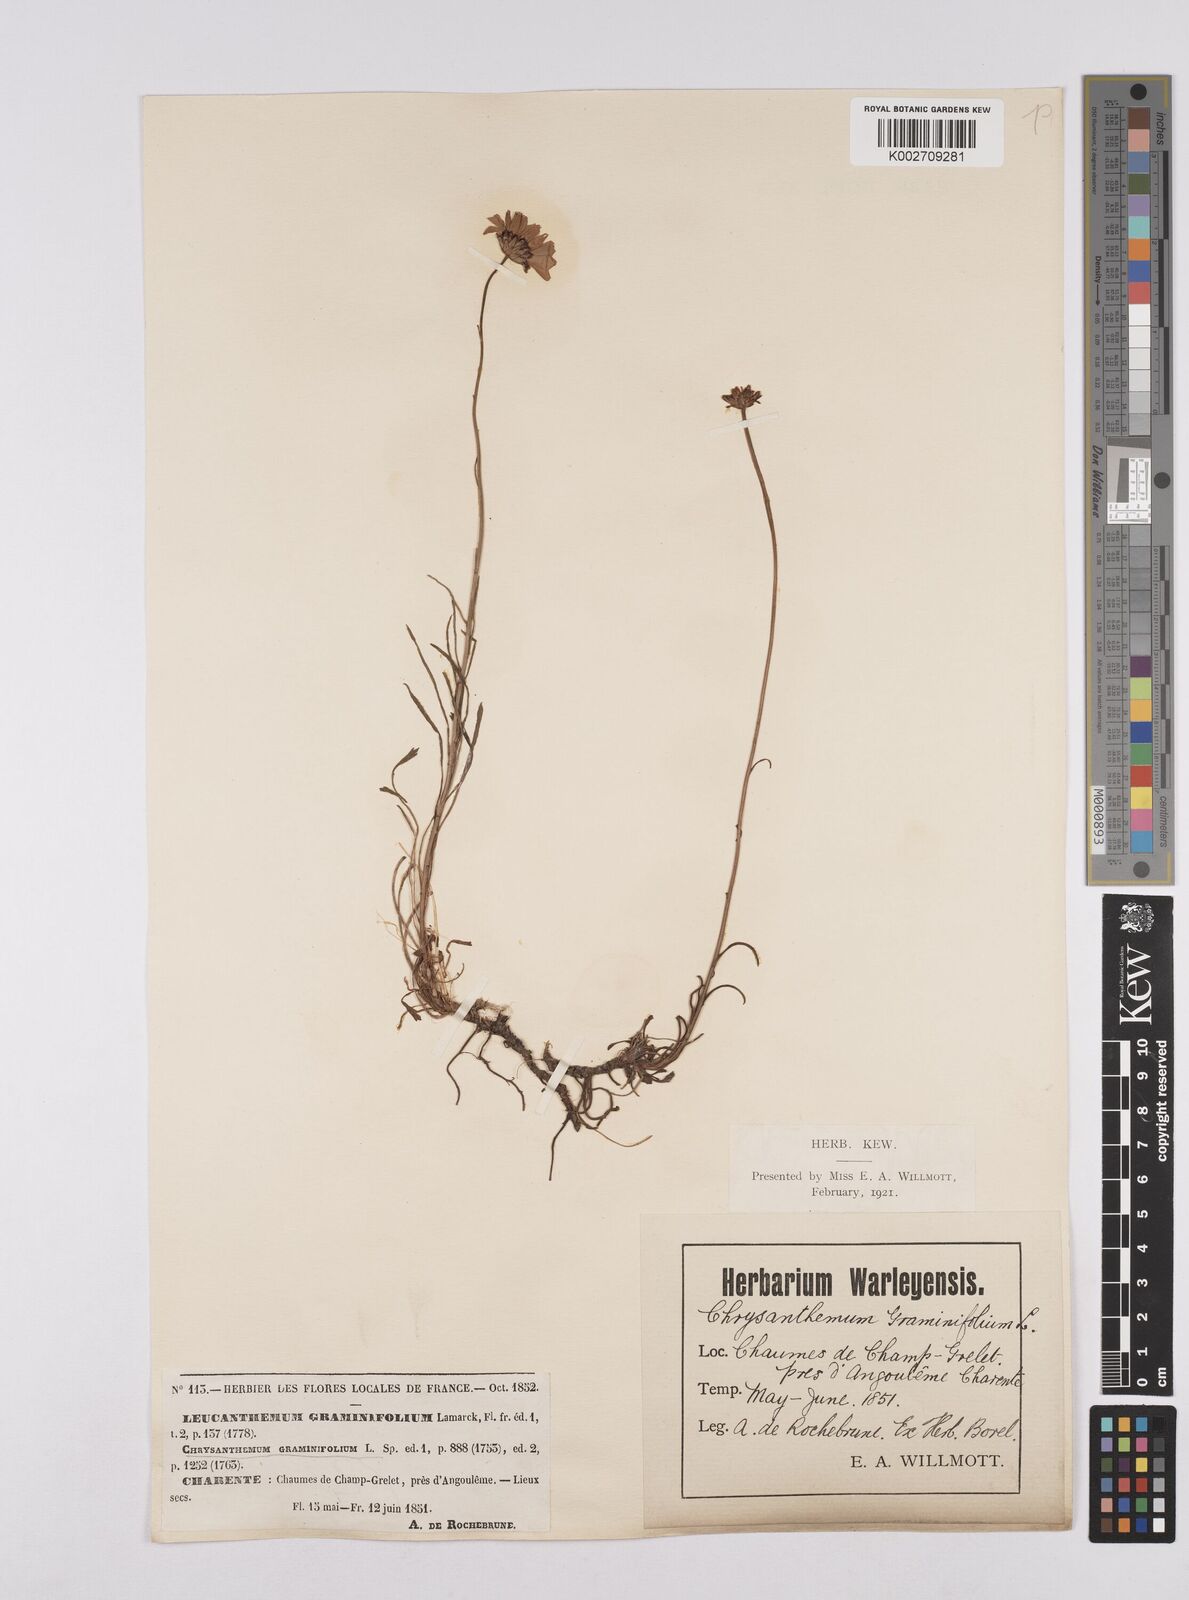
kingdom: Plantae
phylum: Tracheophyta
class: Magnoliopsida
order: Asterales
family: Asteraceae
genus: Leucanthemum
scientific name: Leucanthemum chloroticum
